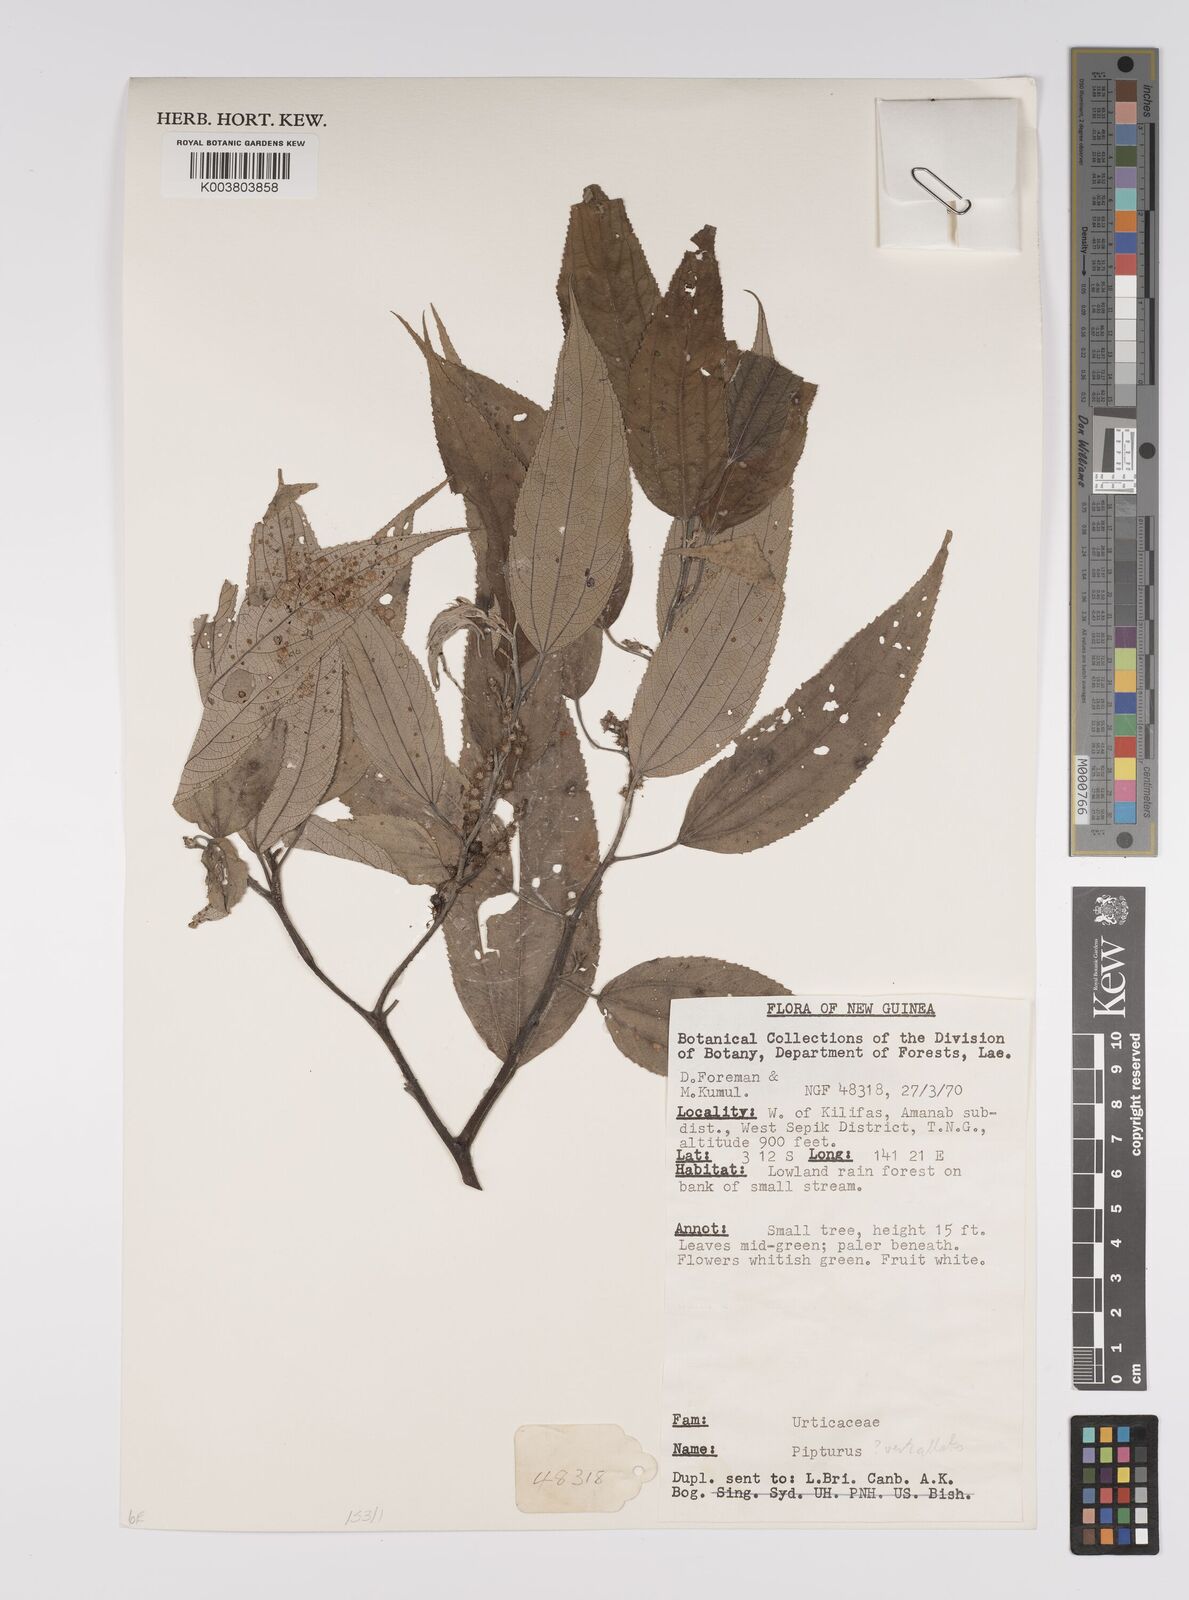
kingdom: Plantae
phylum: Tracheophyta
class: Magnoliopsida
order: Rosales
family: Urticaceae
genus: Pipturus
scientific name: Pipturus argenteus
